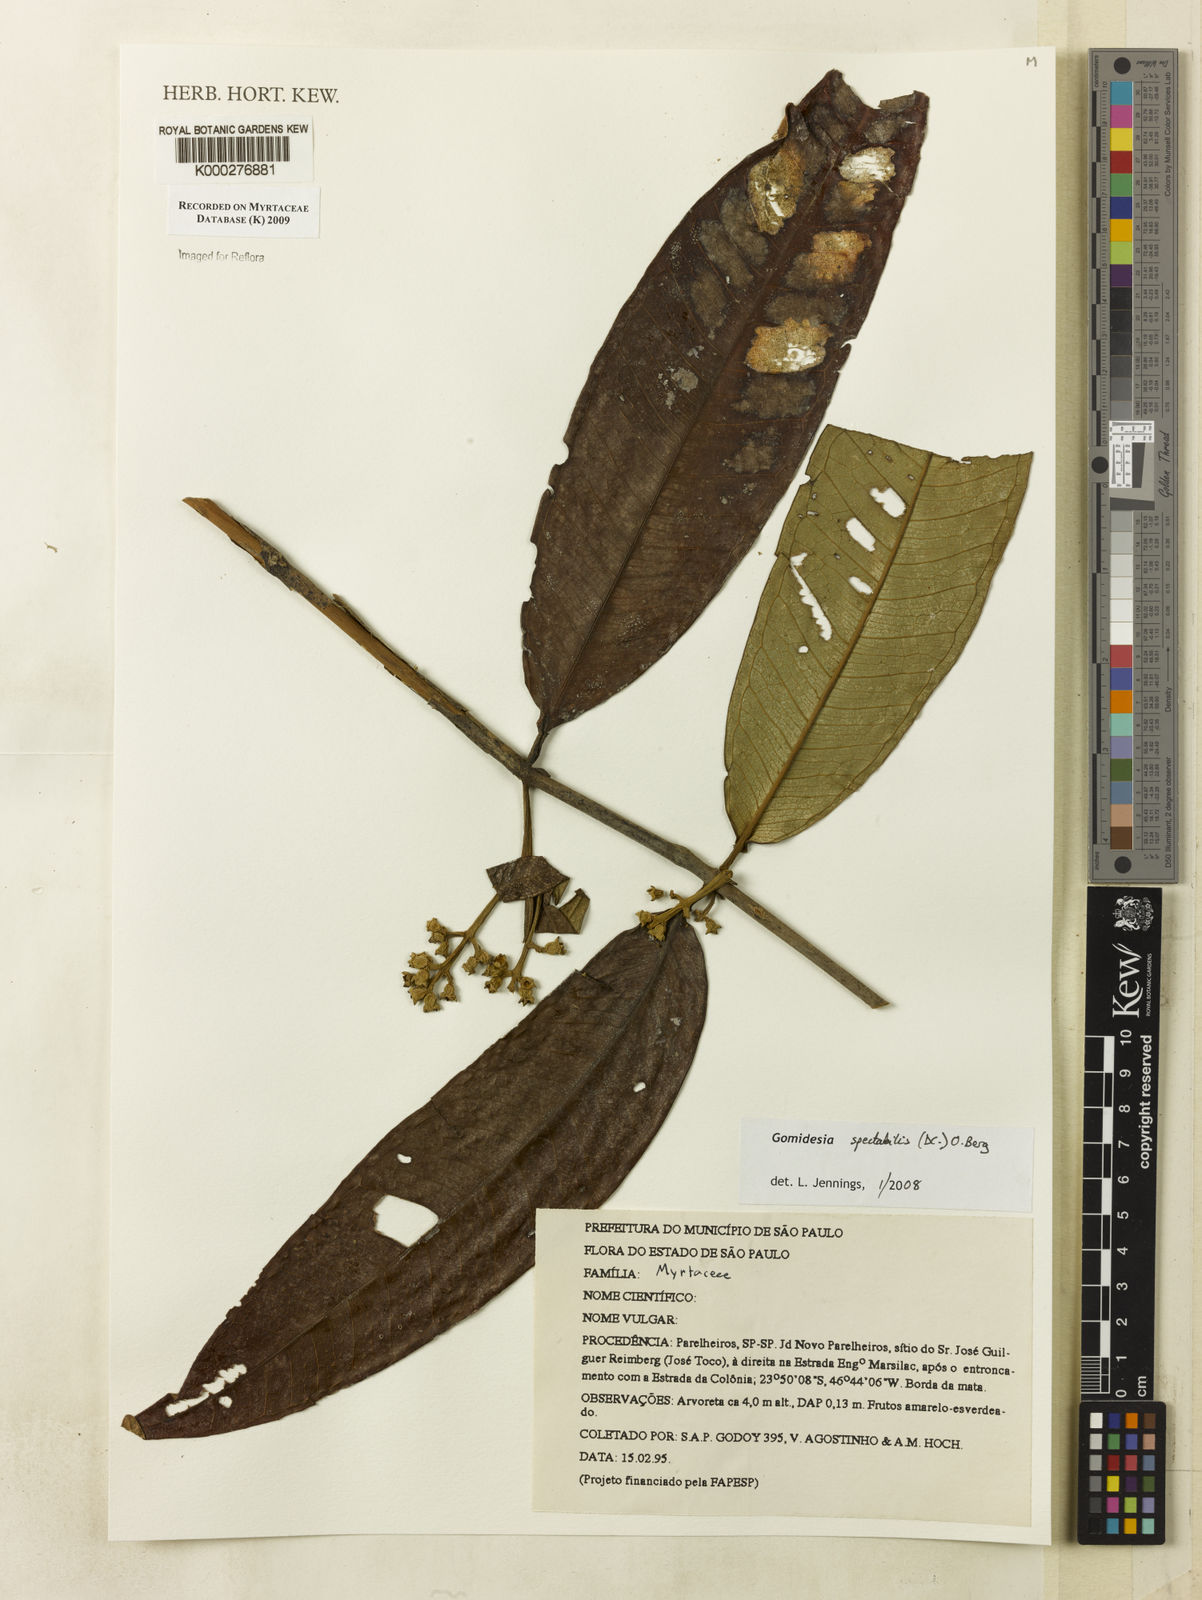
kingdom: Plantae
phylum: Tracheophyta
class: Magnoliopsida
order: Myrtales
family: Myrtaceae
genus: Myrcia
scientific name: Myrcia spectabilis
